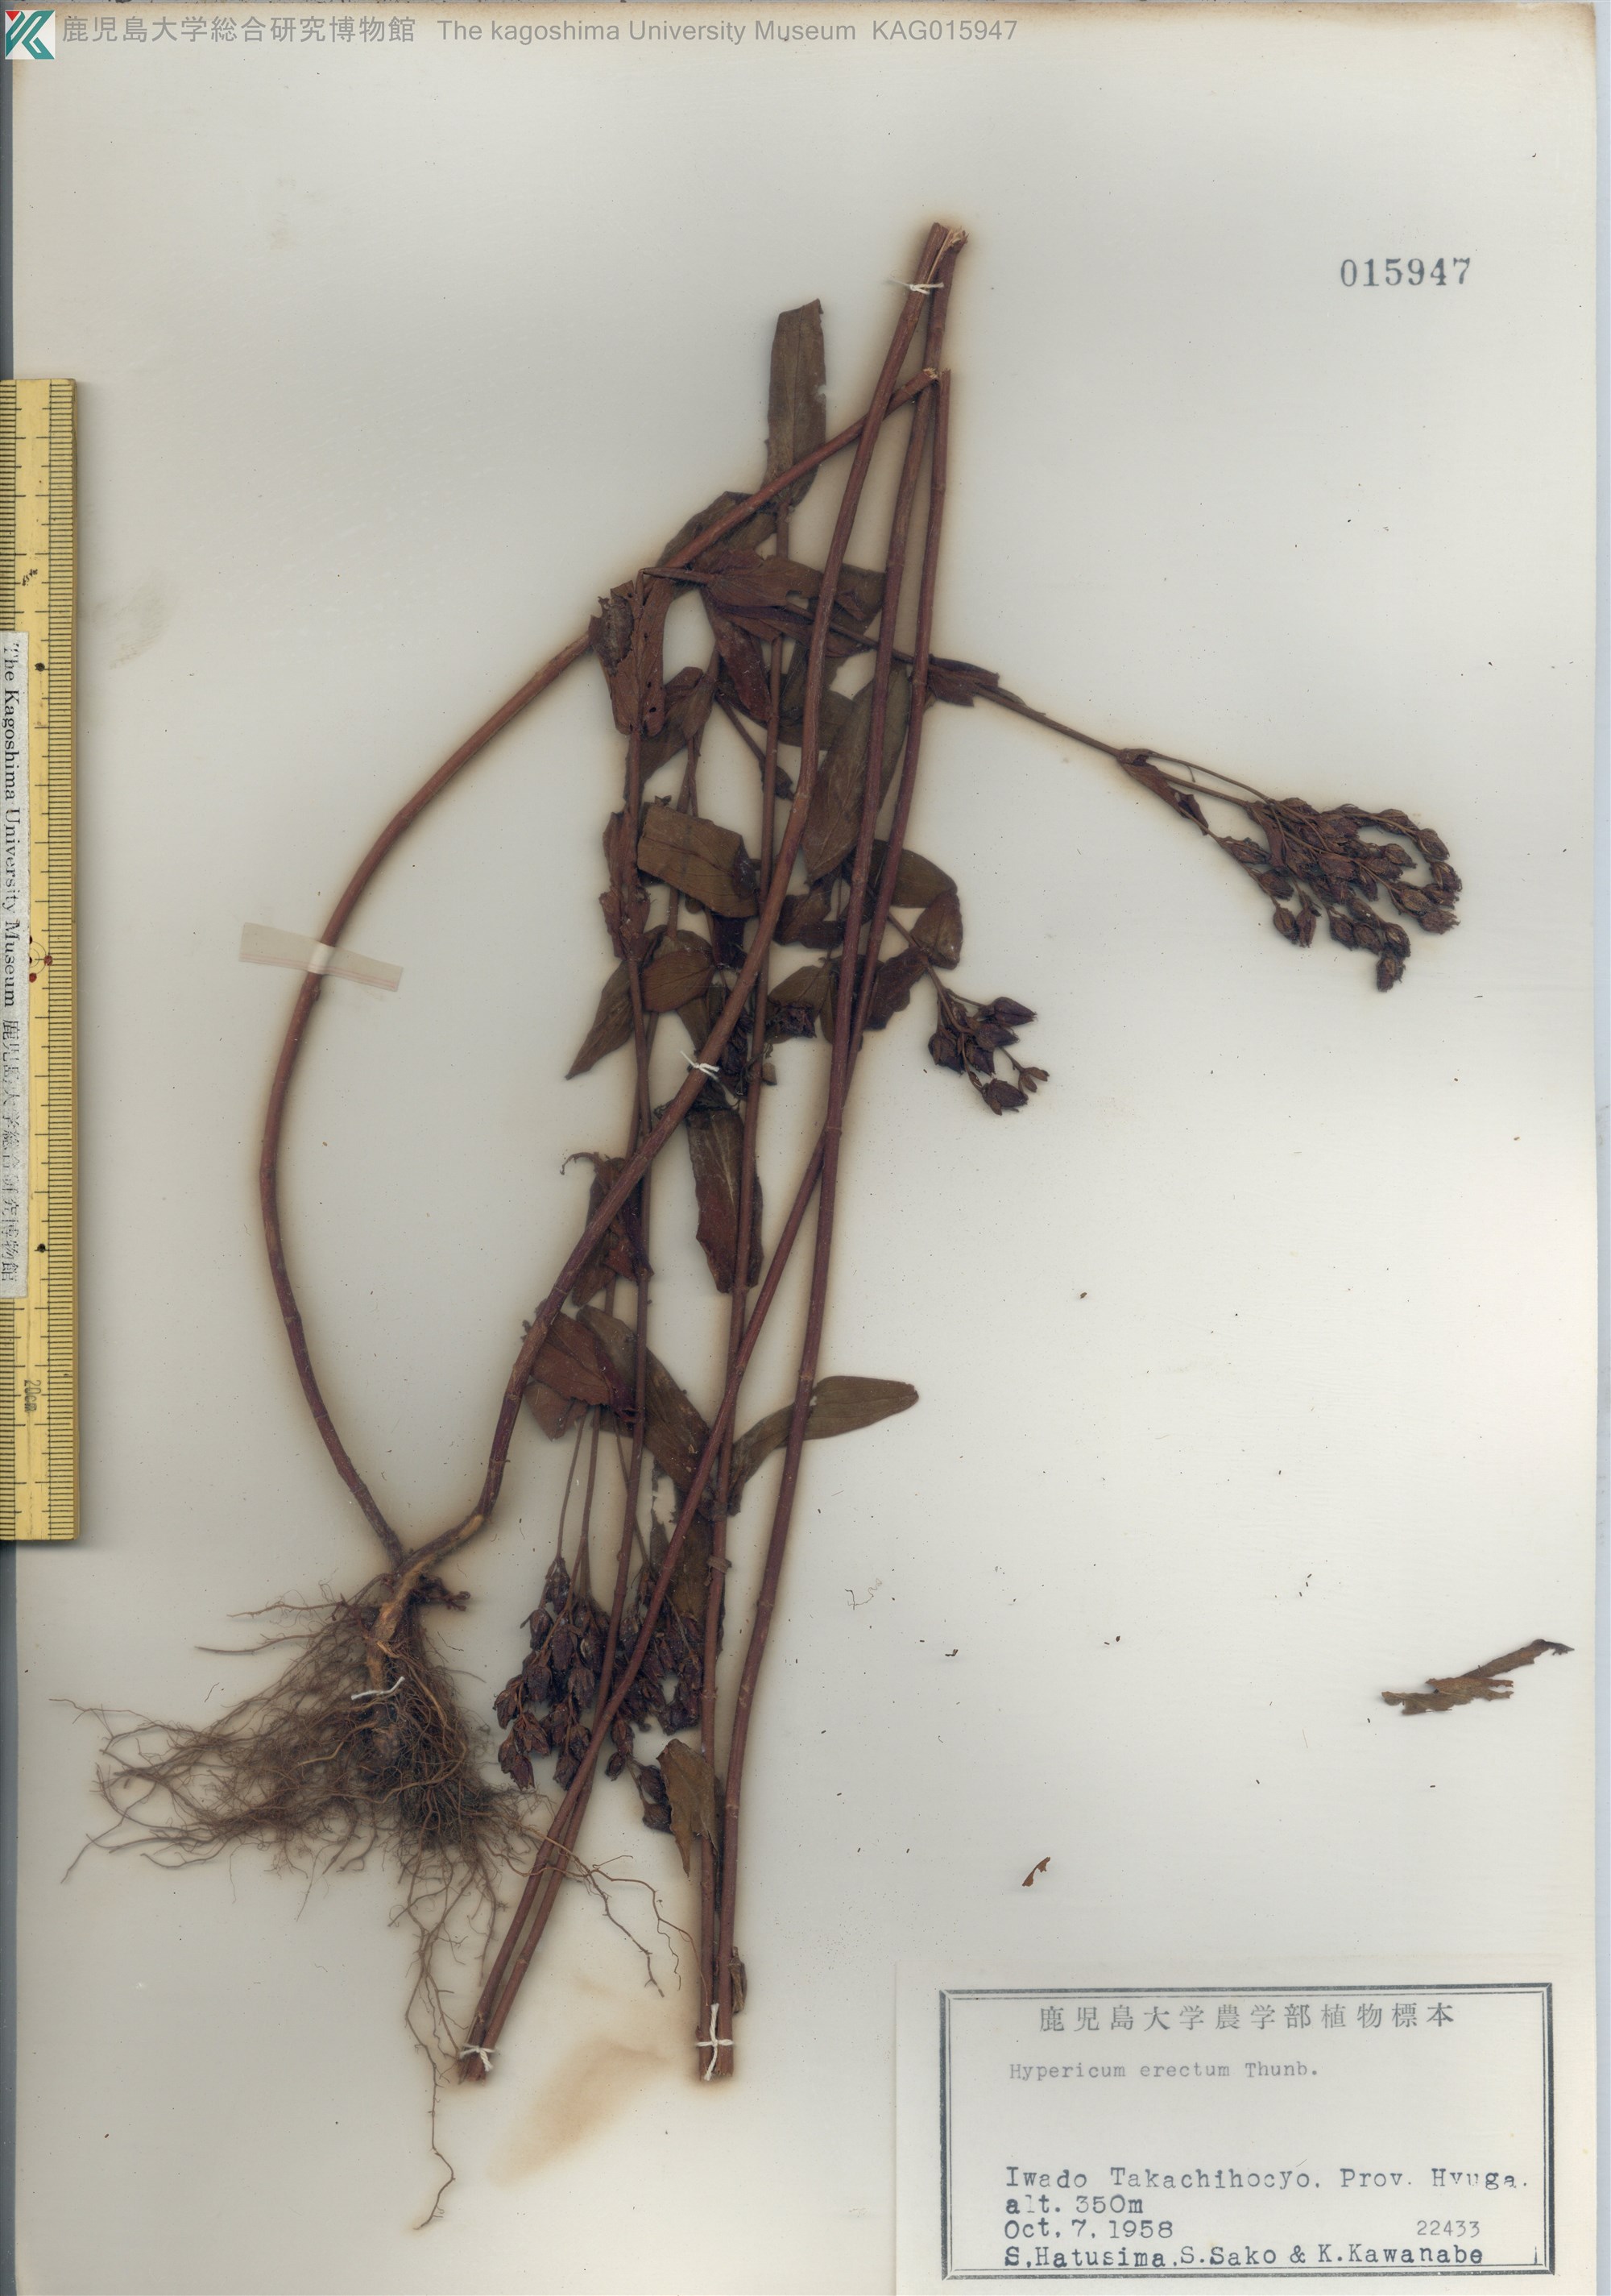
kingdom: Plantae
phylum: Tracheophyta
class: Magnoliopsida
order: Malpighiales
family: Hypericaceae
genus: Hypericum
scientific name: Hypericum erectum
